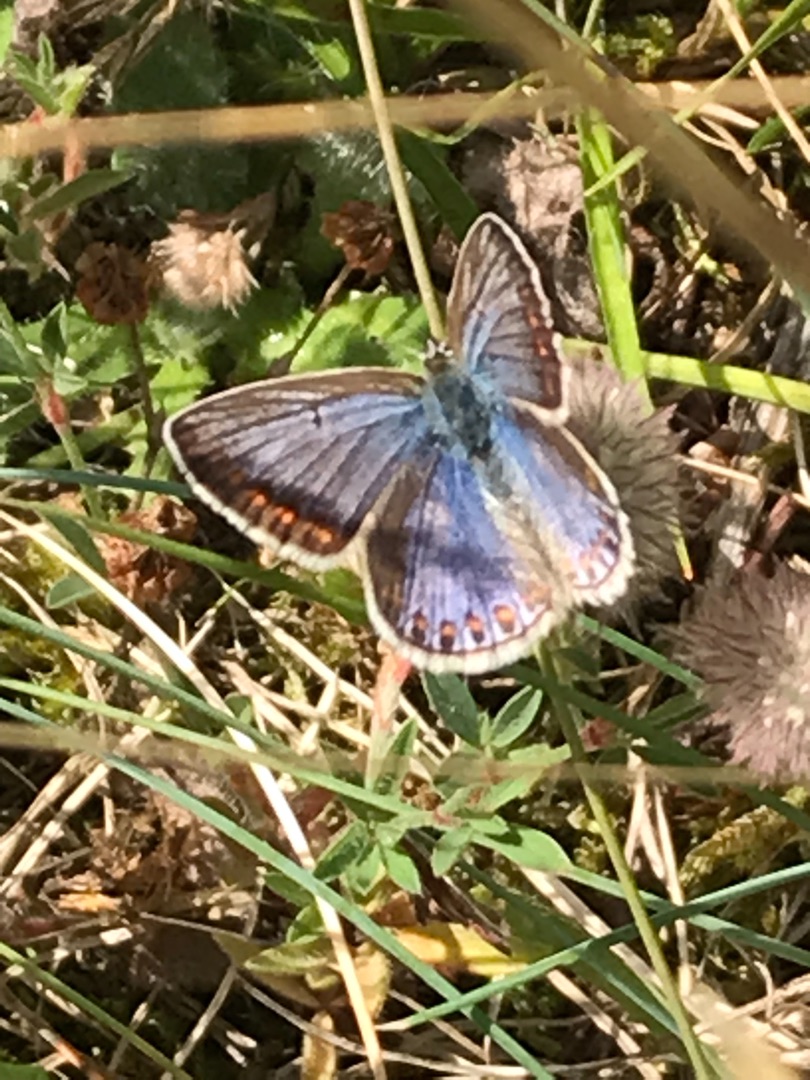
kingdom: Animalia
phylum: Arthropoda
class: Insecta
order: Lepidoptera
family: Lycaenidae
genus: Polyommatus
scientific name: Polyommatus icarus
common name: Almindelig blåfugl
